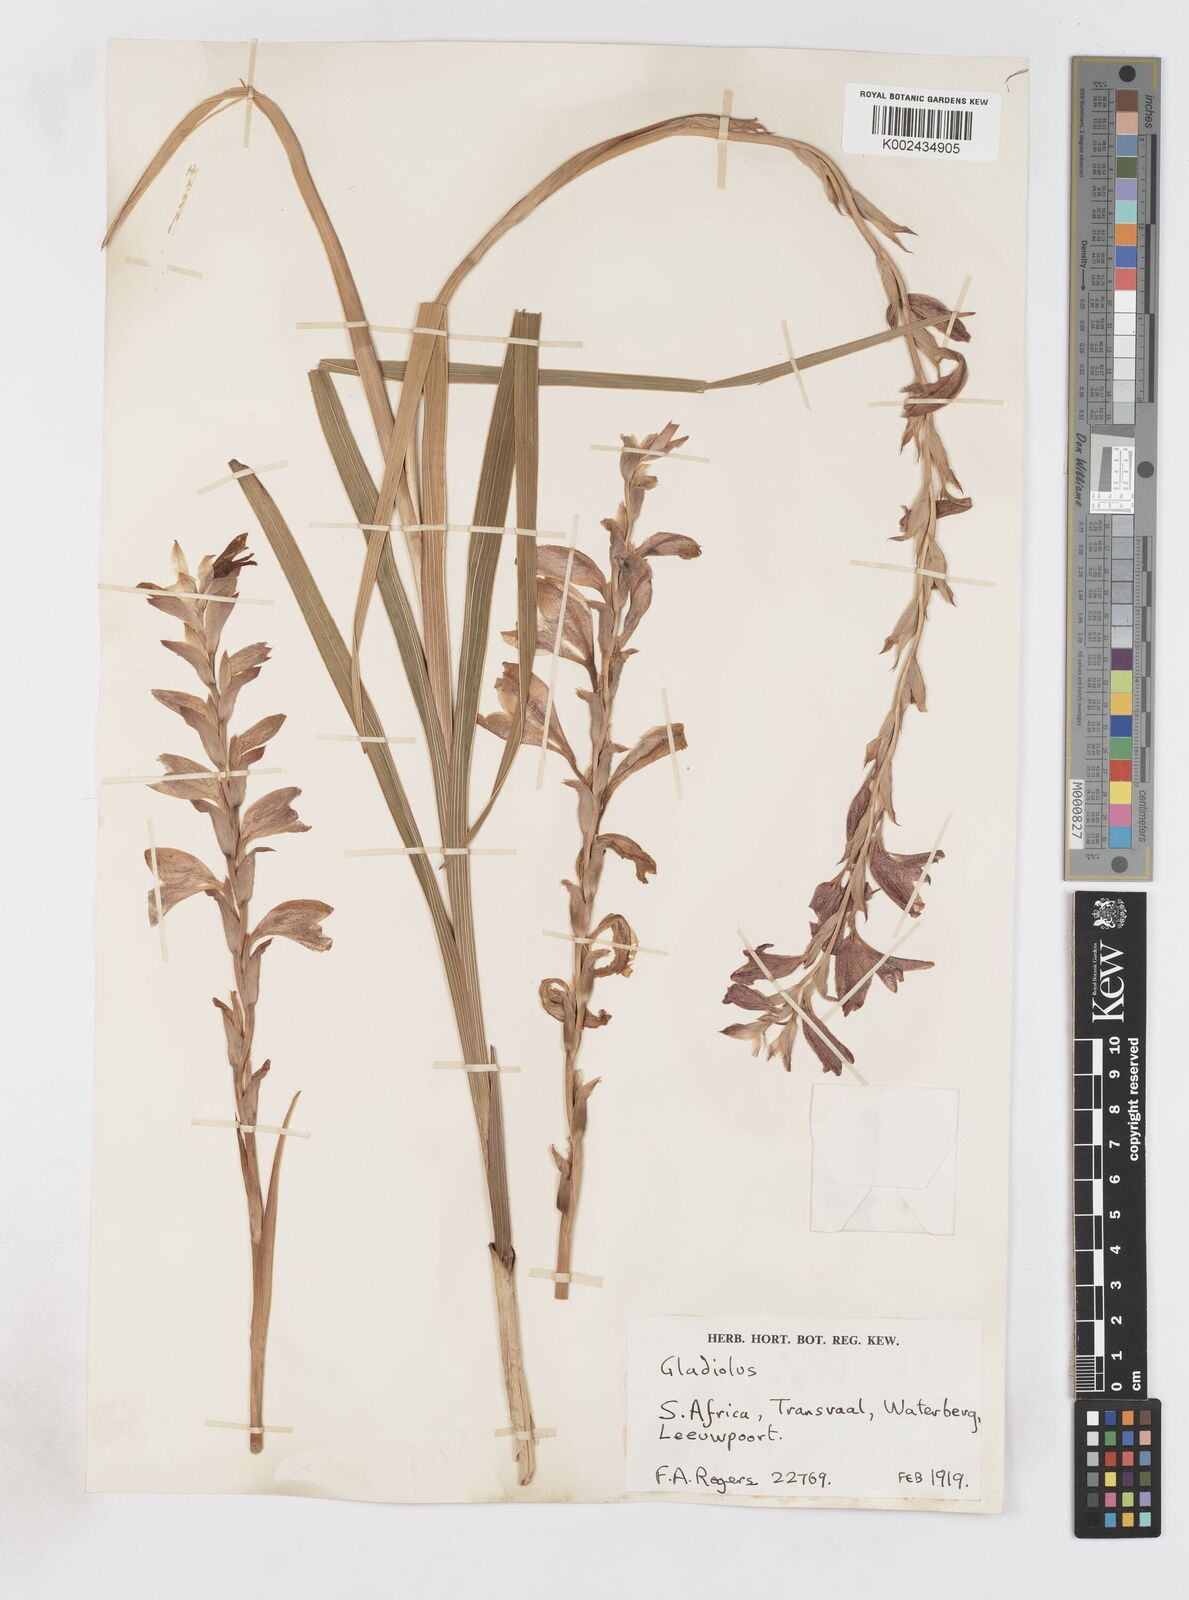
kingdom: Plantae
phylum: Tracheophyta
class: Liliopsida
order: Asparagales
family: Iridaceae
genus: Gladiolus
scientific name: Gladiolus elliotii
